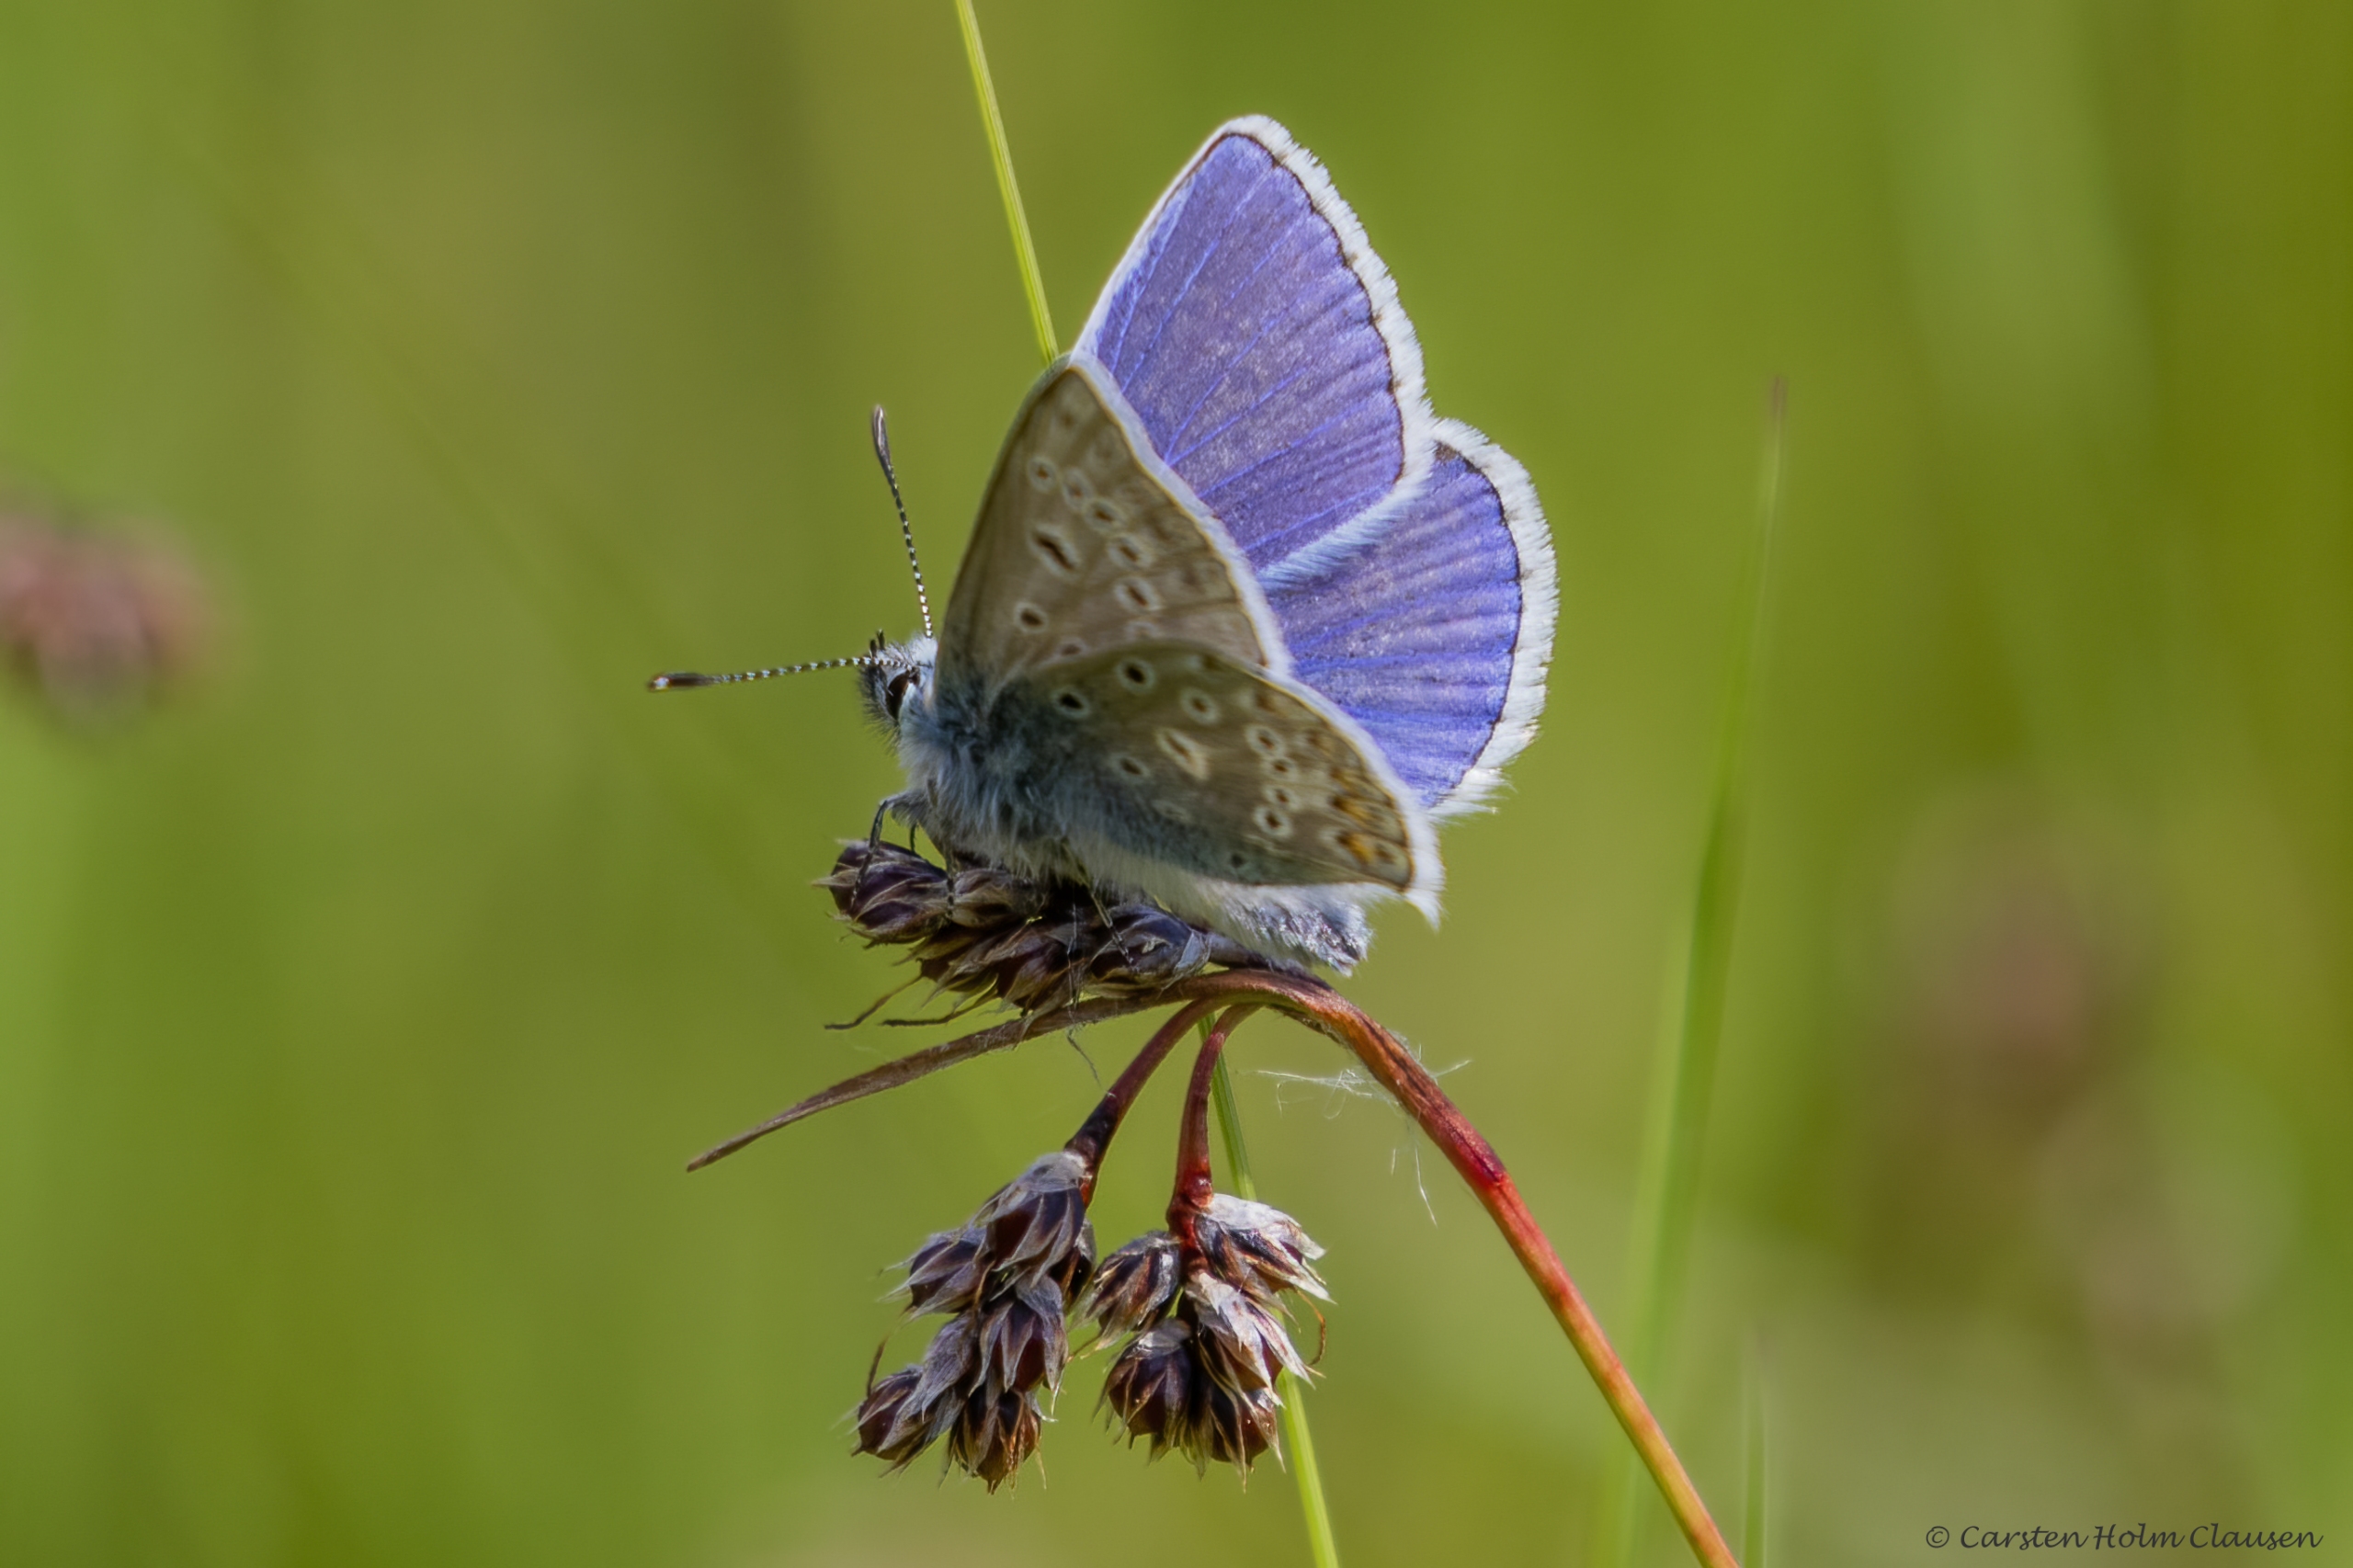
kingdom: Animalia
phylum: Arthropoda
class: Insecta
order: Lepidoptera
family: Lycaenidae
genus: Polyommatus
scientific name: Polyommatus icarus
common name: Almindelig blåfugl
